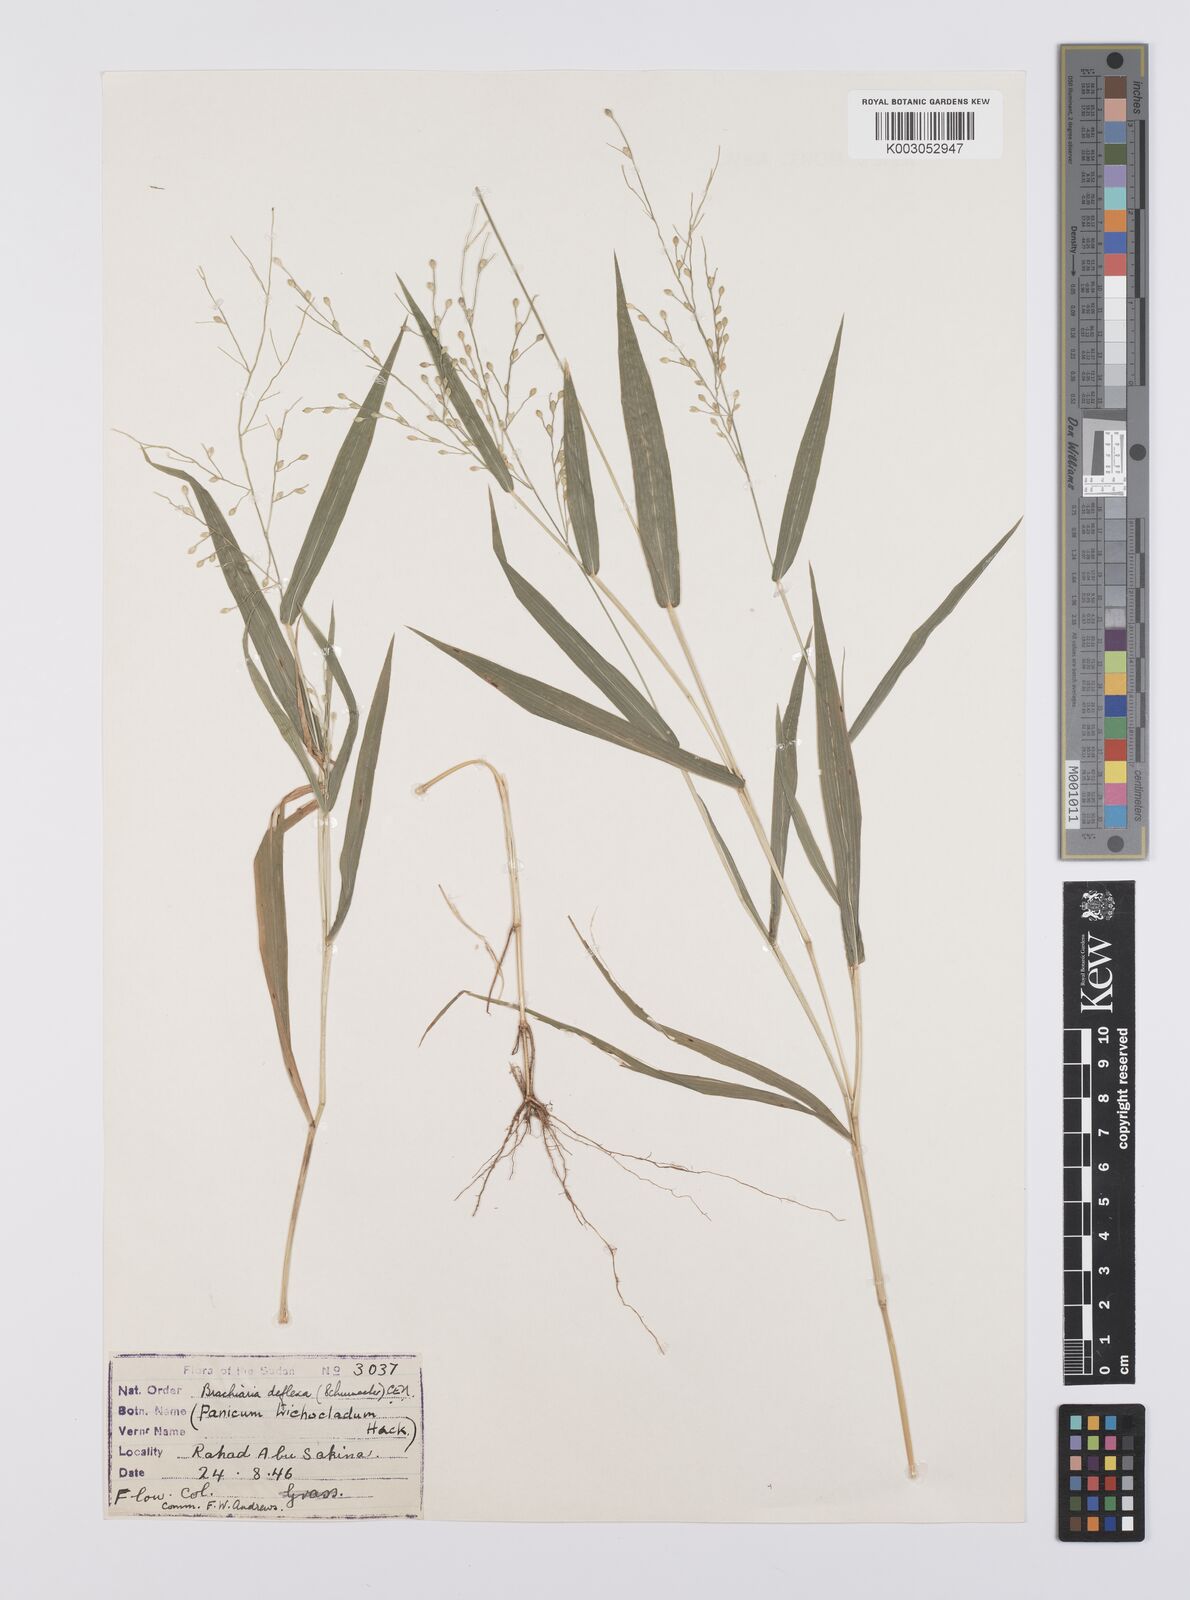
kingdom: Plantae
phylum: Tracheophyta
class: Liliopsida
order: Poales
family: Poaceae
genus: Urochloa
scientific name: Urochloa deflexa
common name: Guinea millet
